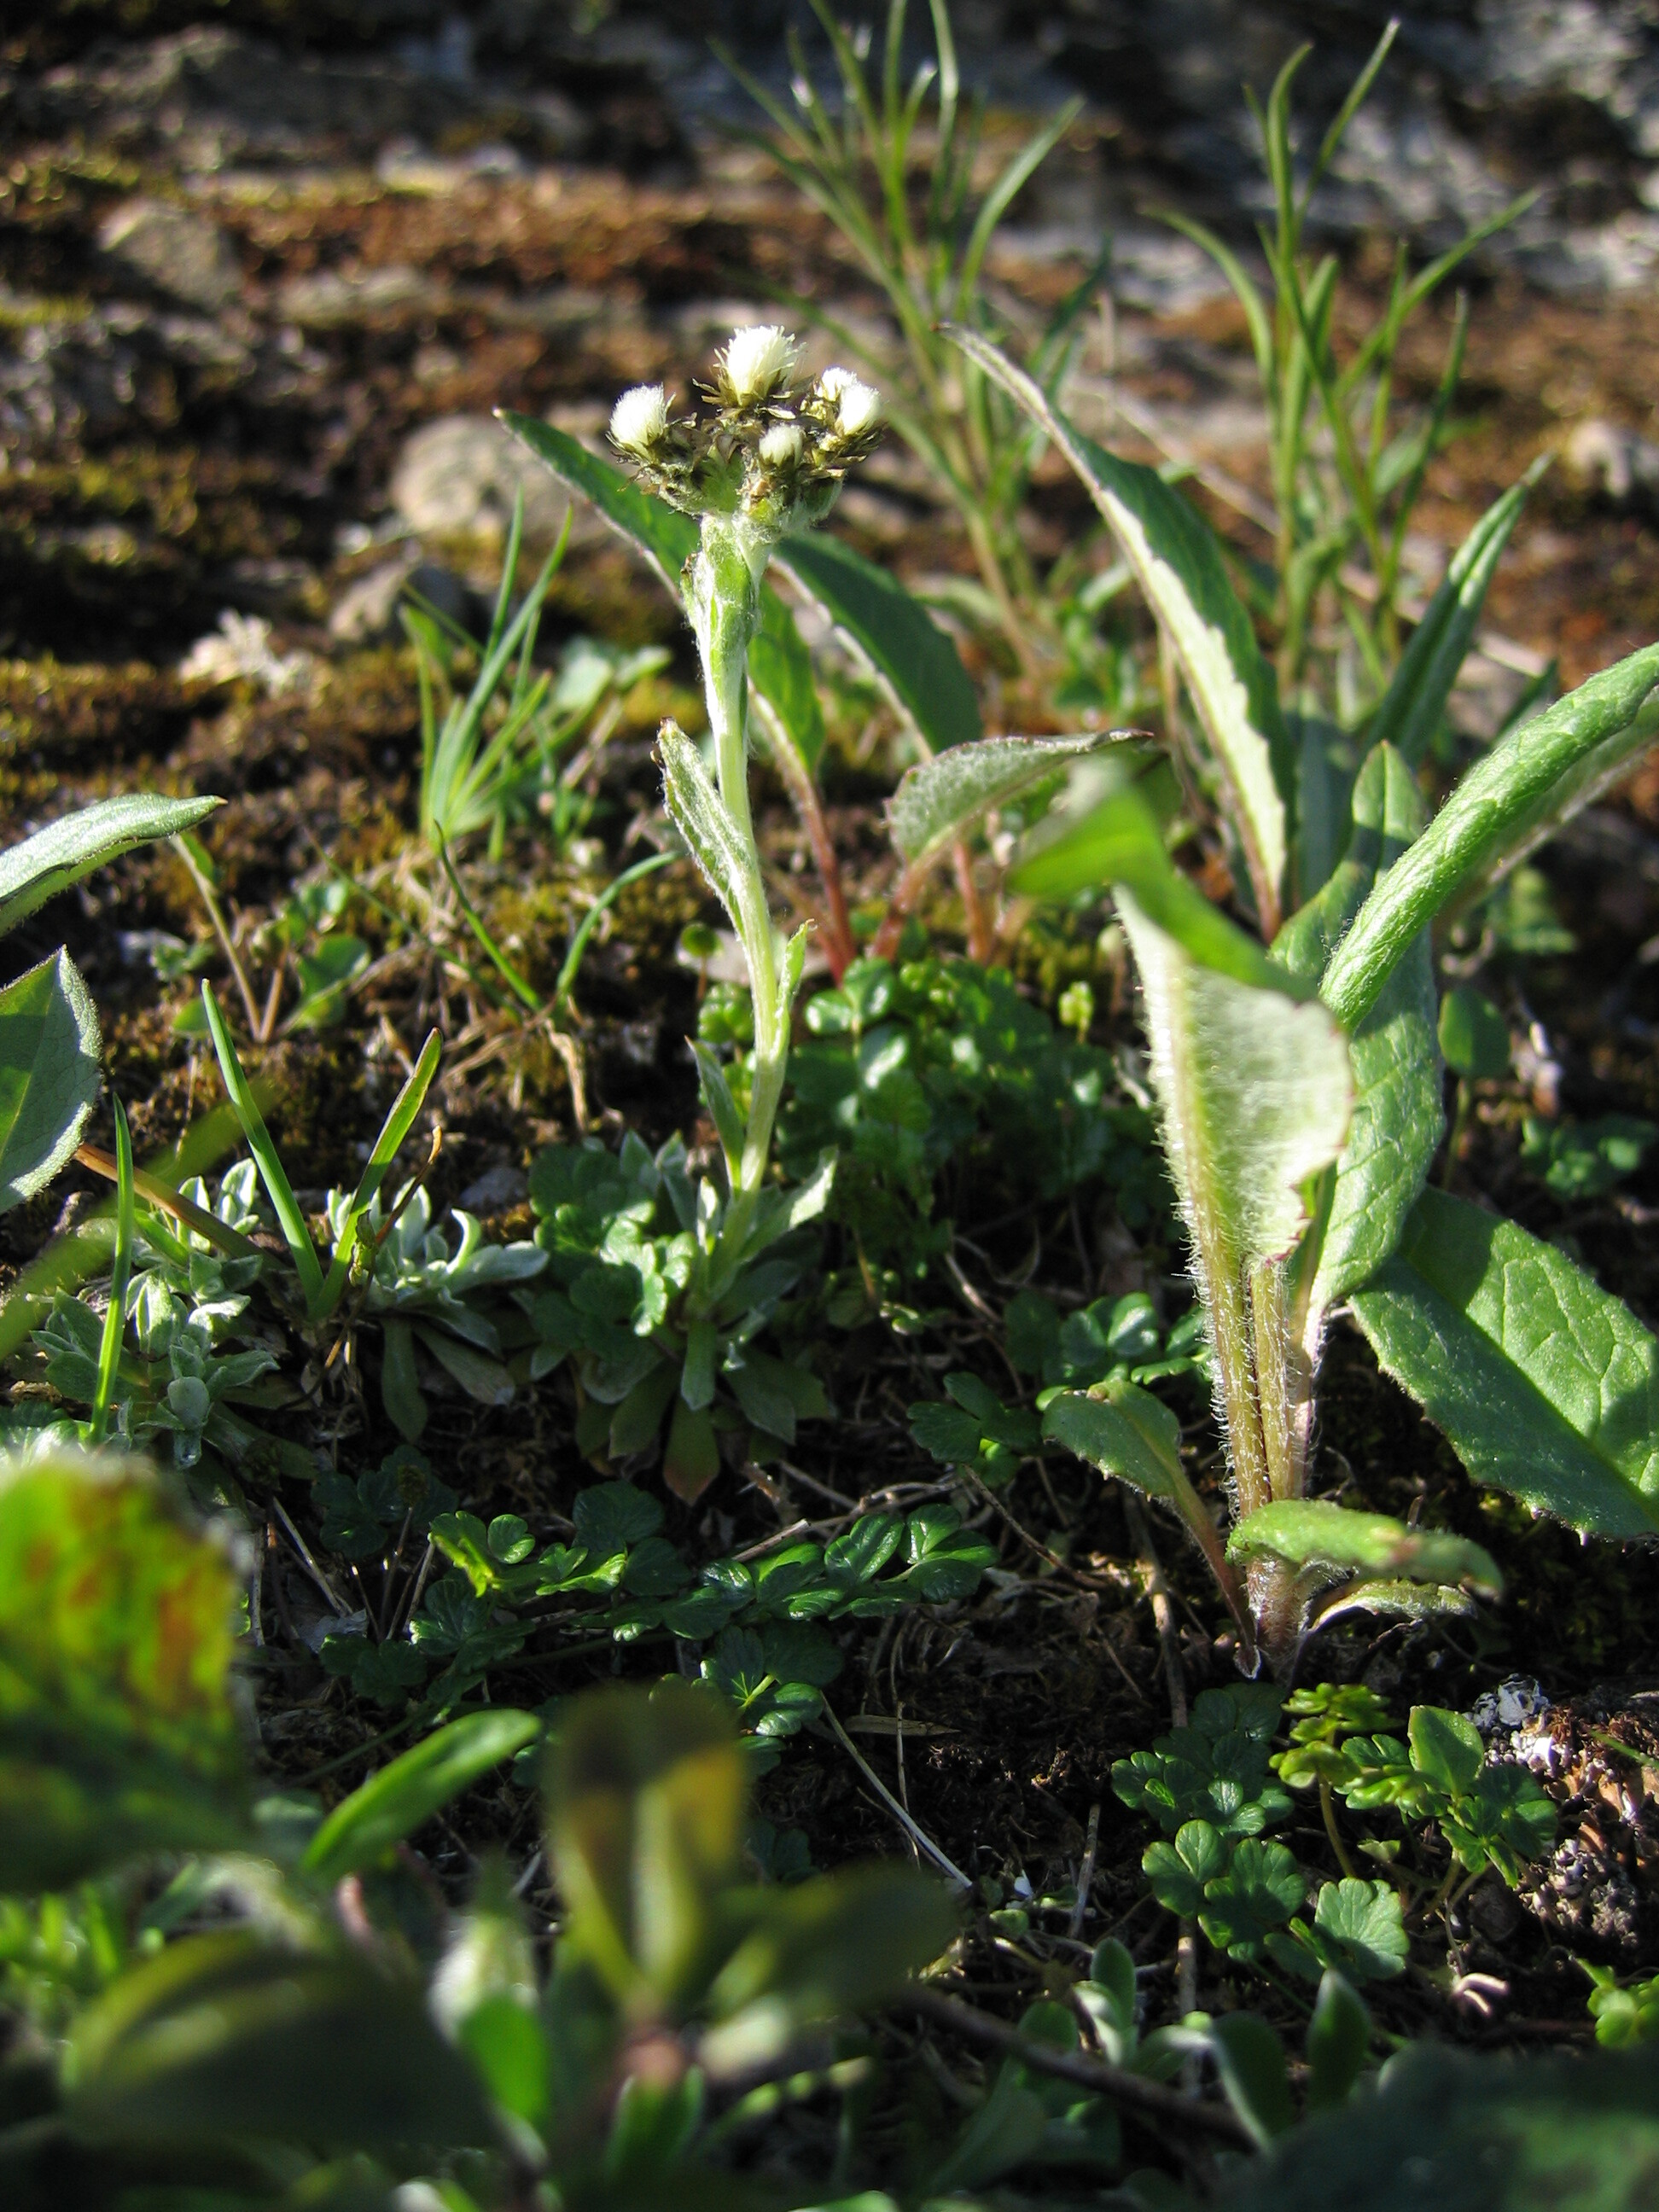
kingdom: Plantae
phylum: Tracheophyta
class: Magnoliopsida
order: Asterales
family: Asteraceae
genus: Antennaria
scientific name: Antennaria alpina
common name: Alpine pussytoes
